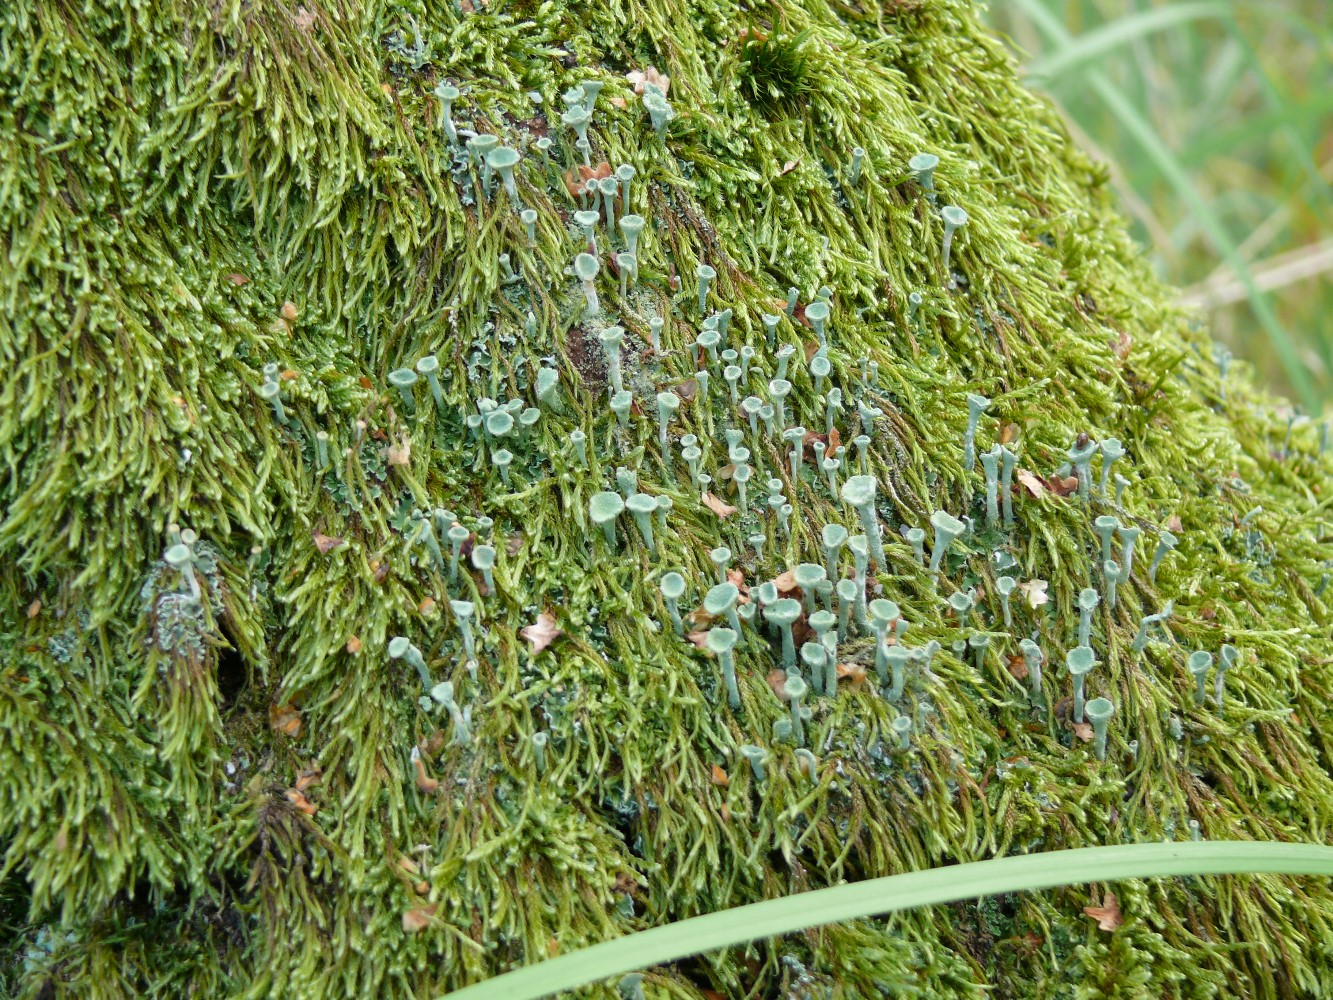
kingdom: Fungi
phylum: Ascomycota
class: Lecanoromycetes
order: Lecanorales
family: Cladoniaceae
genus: Cladonia
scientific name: Cladonia fimbriata
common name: bleggrøn bægerlav
